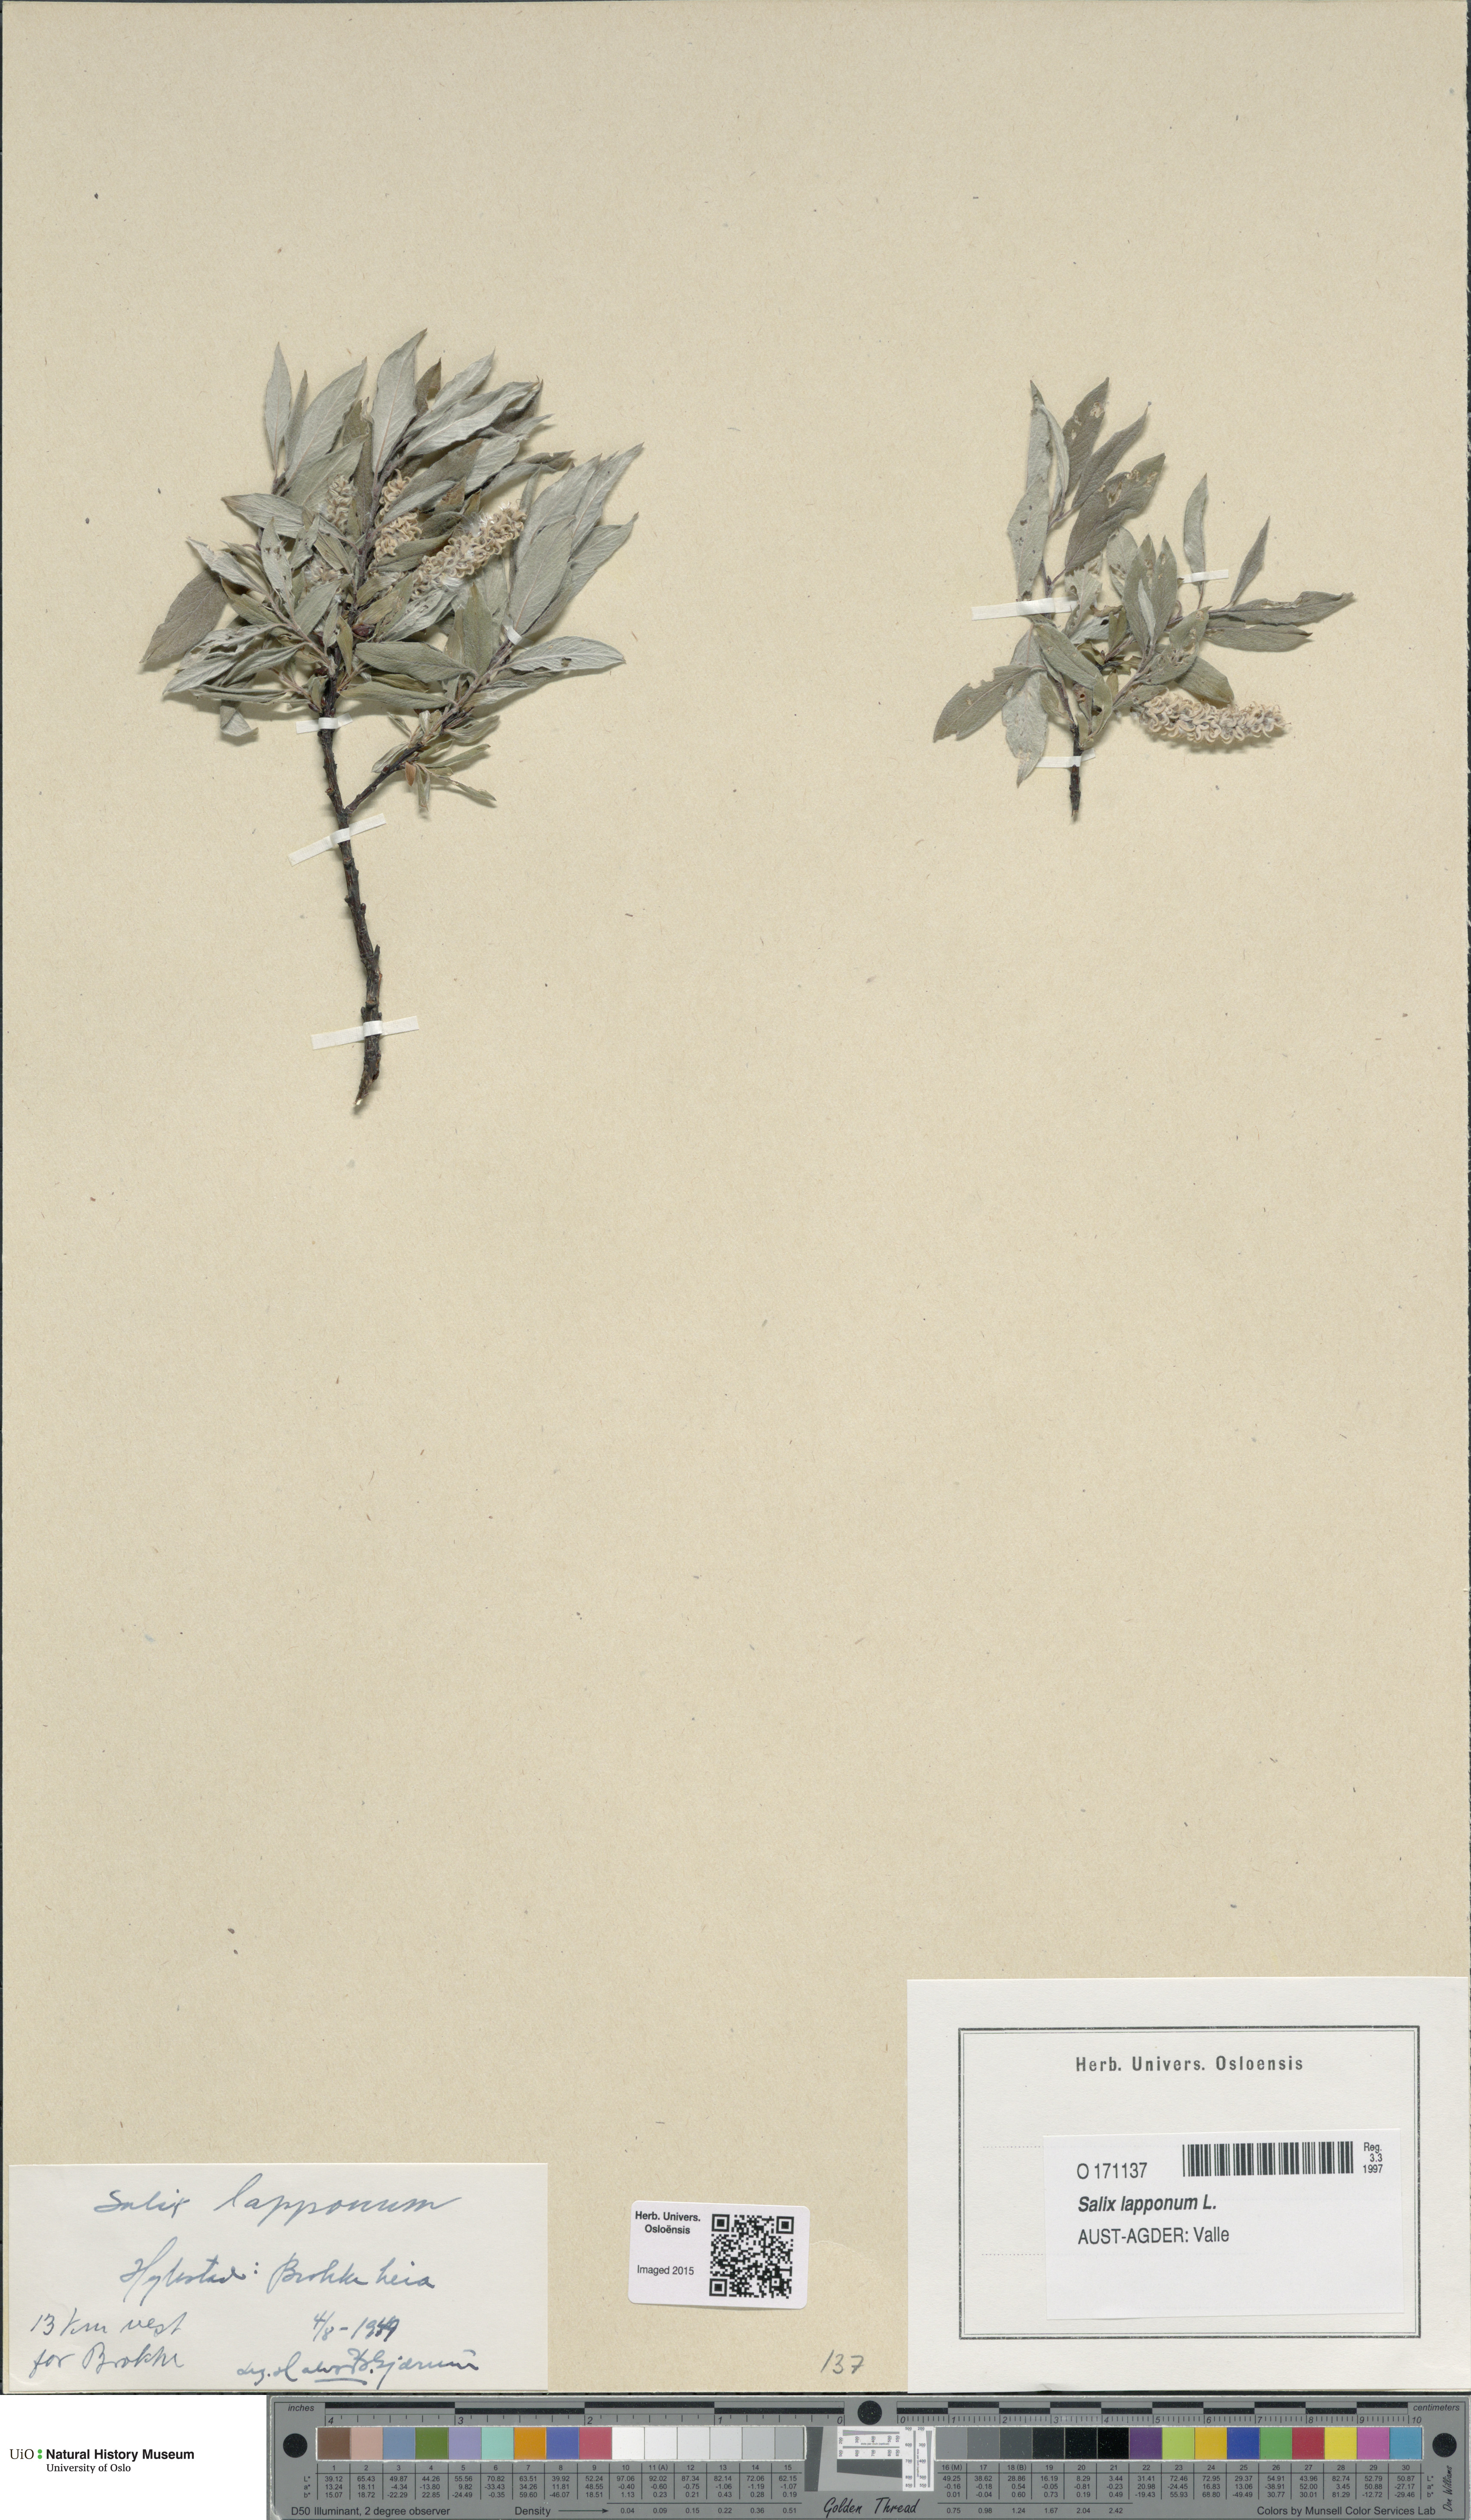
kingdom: Plantae
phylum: Tracheophyta
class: Magnoliopsida
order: Malpighiales
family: Salicaceae
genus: Salix
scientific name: Salix lapponum
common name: Downy willow
